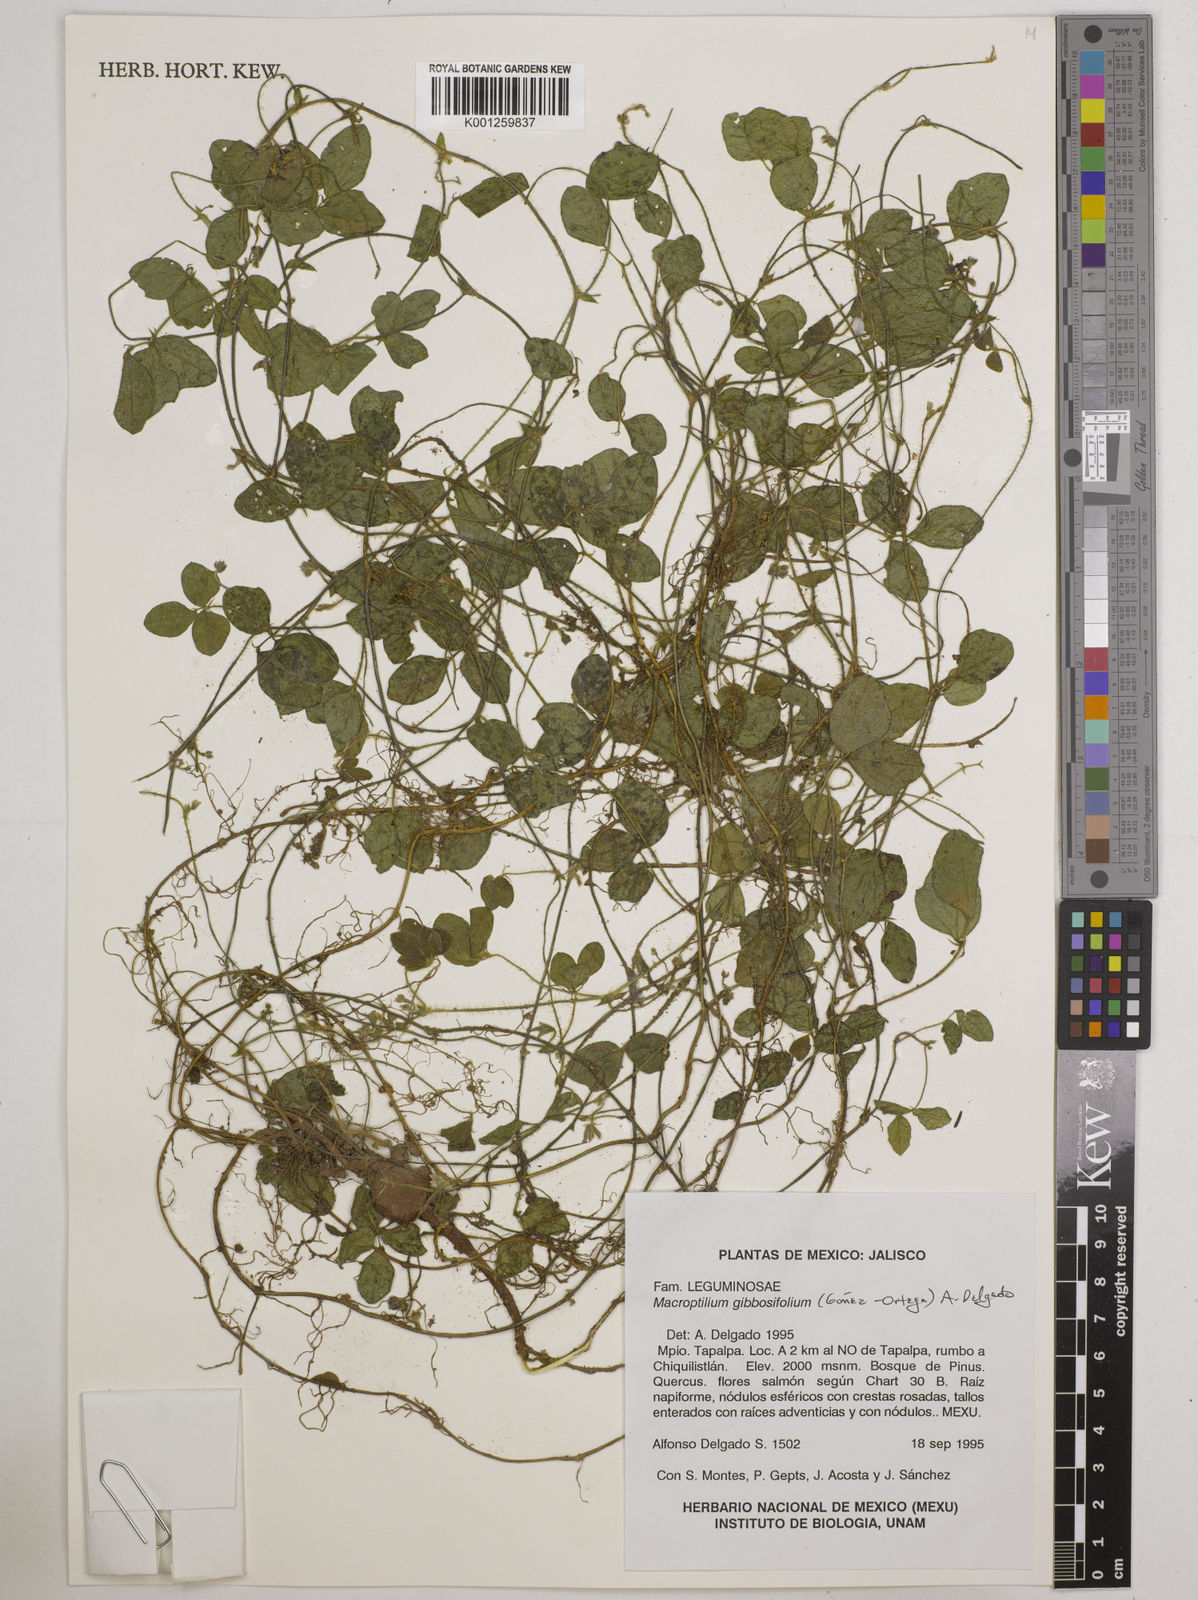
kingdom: Plantae
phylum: Tracheophyta
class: Magnoliopsida
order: Fabales
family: Fabaceae
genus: Macroptilium
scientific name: Macroptilium gibbosifolium
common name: Variableleaf bushbean
